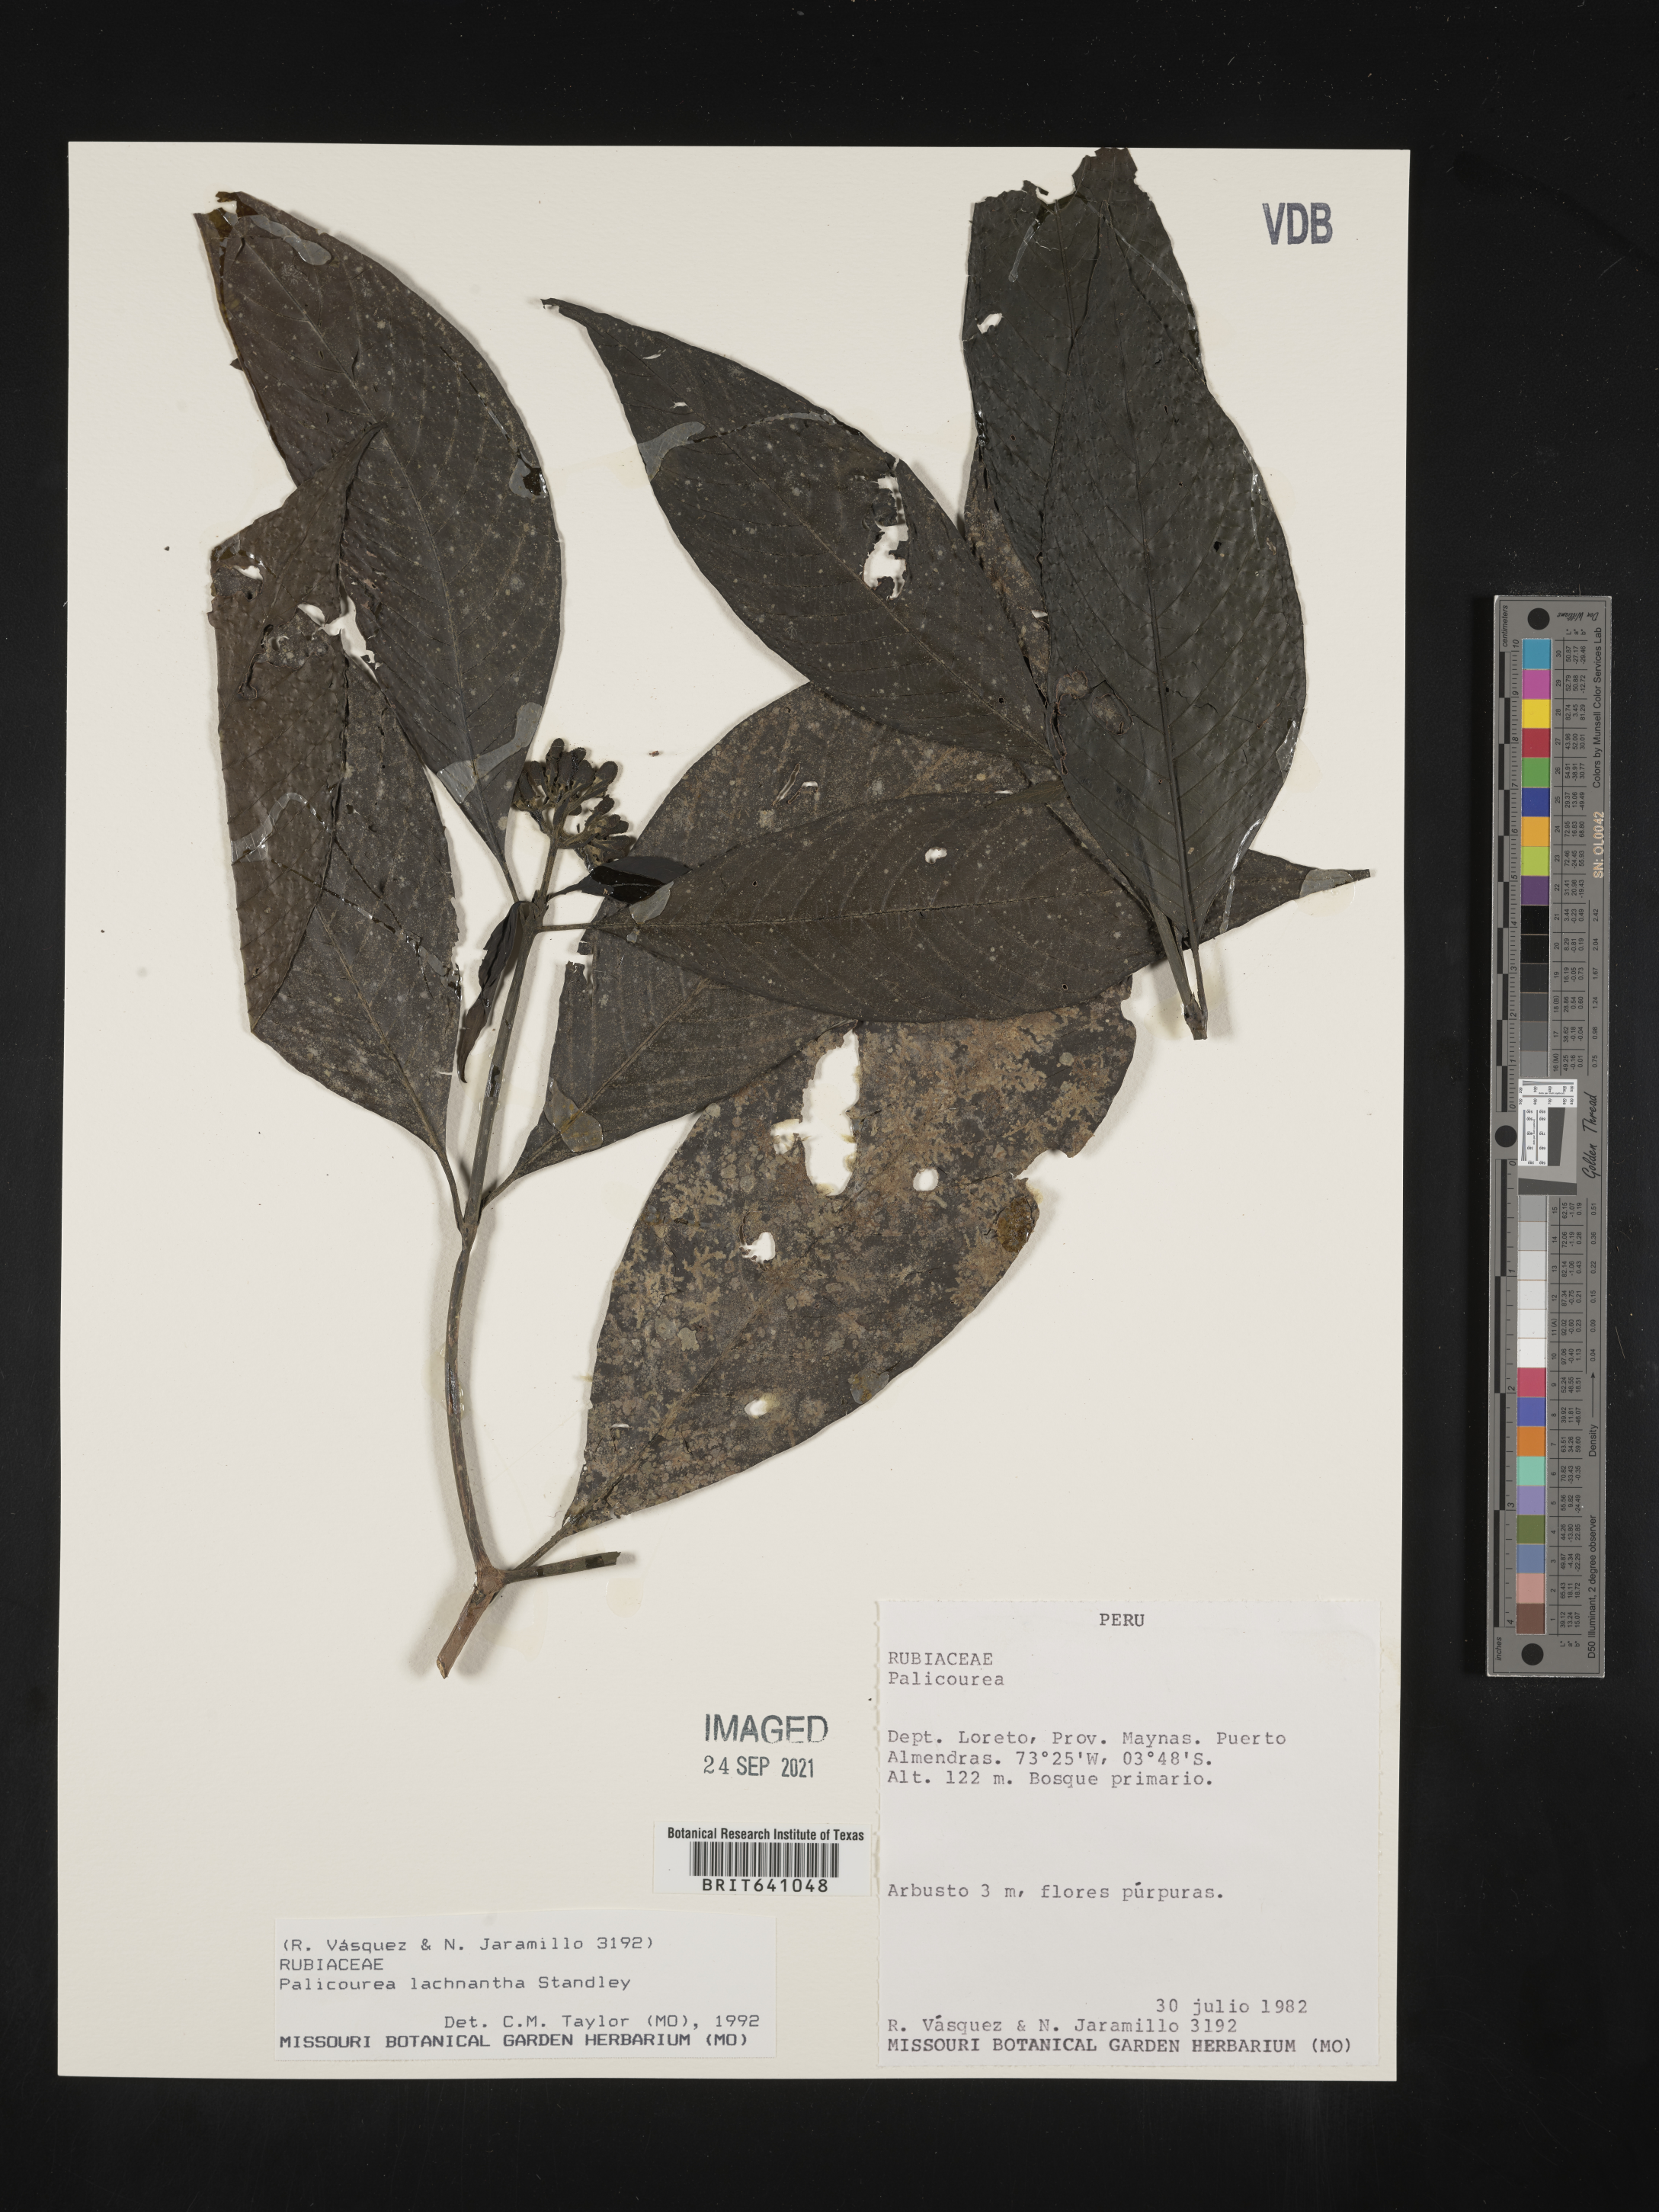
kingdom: Plantae
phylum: Tracheophyta
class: Magnoliopsida
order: Gentianales
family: Rubiaceae
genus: Palicourea
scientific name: Palicourea
